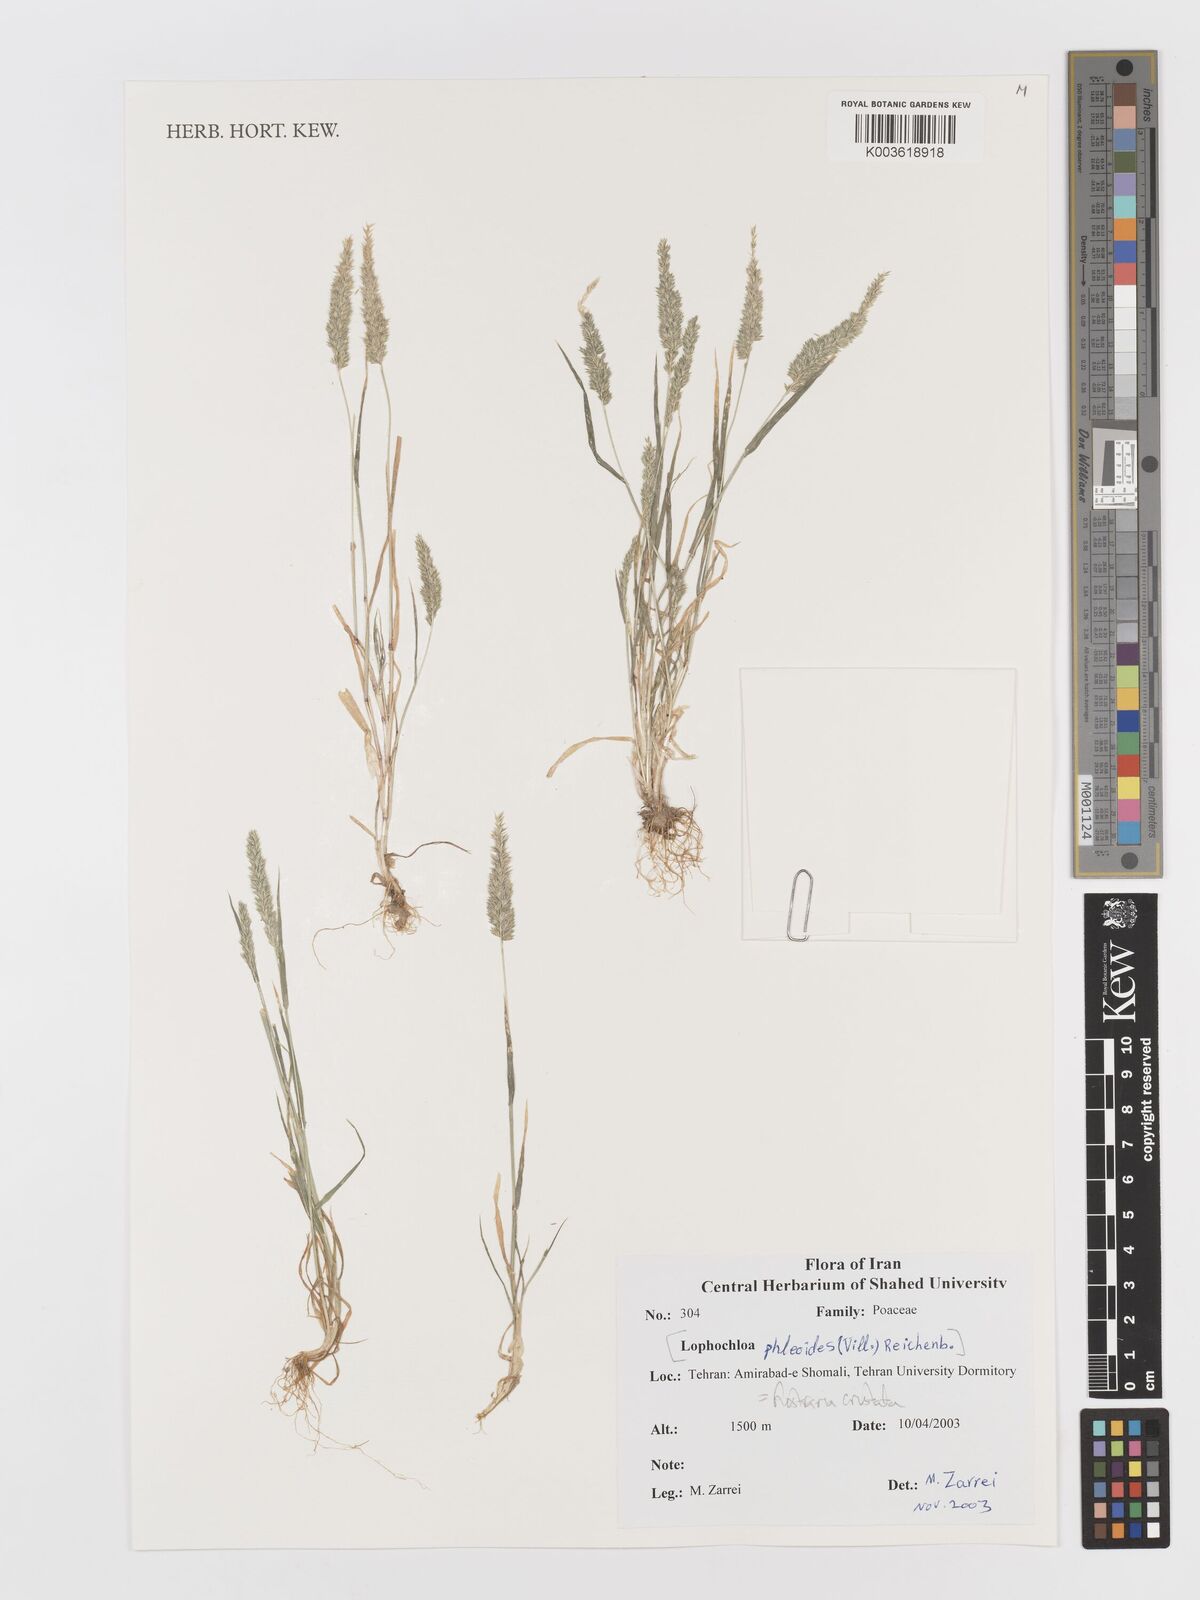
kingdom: Plantae
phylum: Tracheophyta
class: Liliopsida
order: Poales
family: Poaceae
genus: Rostraria
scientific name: Rostraria cristata
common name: Mediterranean hair-grass
